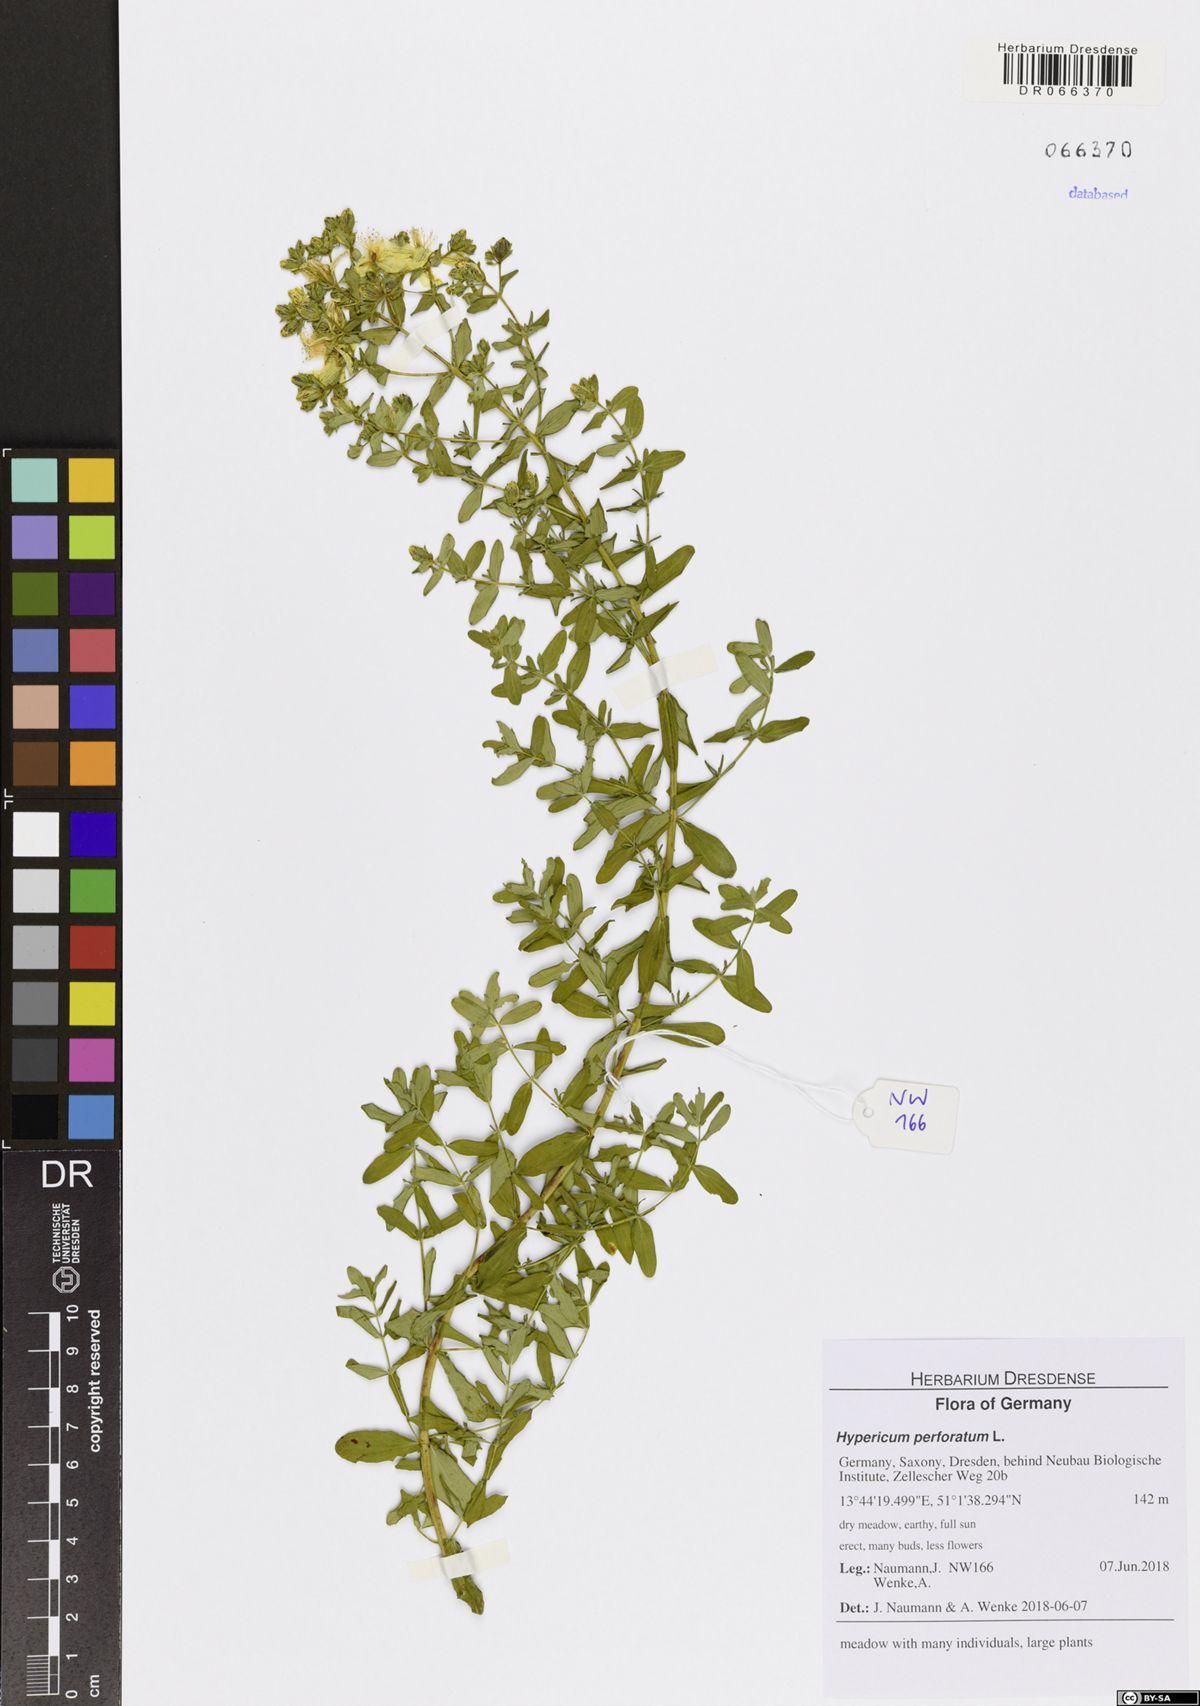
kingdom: Plantae
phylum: Tracheophyta
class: Magnoliopsida
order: Malpighiales
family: Hypericaceae
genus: Hypericum
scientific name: Hypericum perforatum
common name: Common st. johnswort
